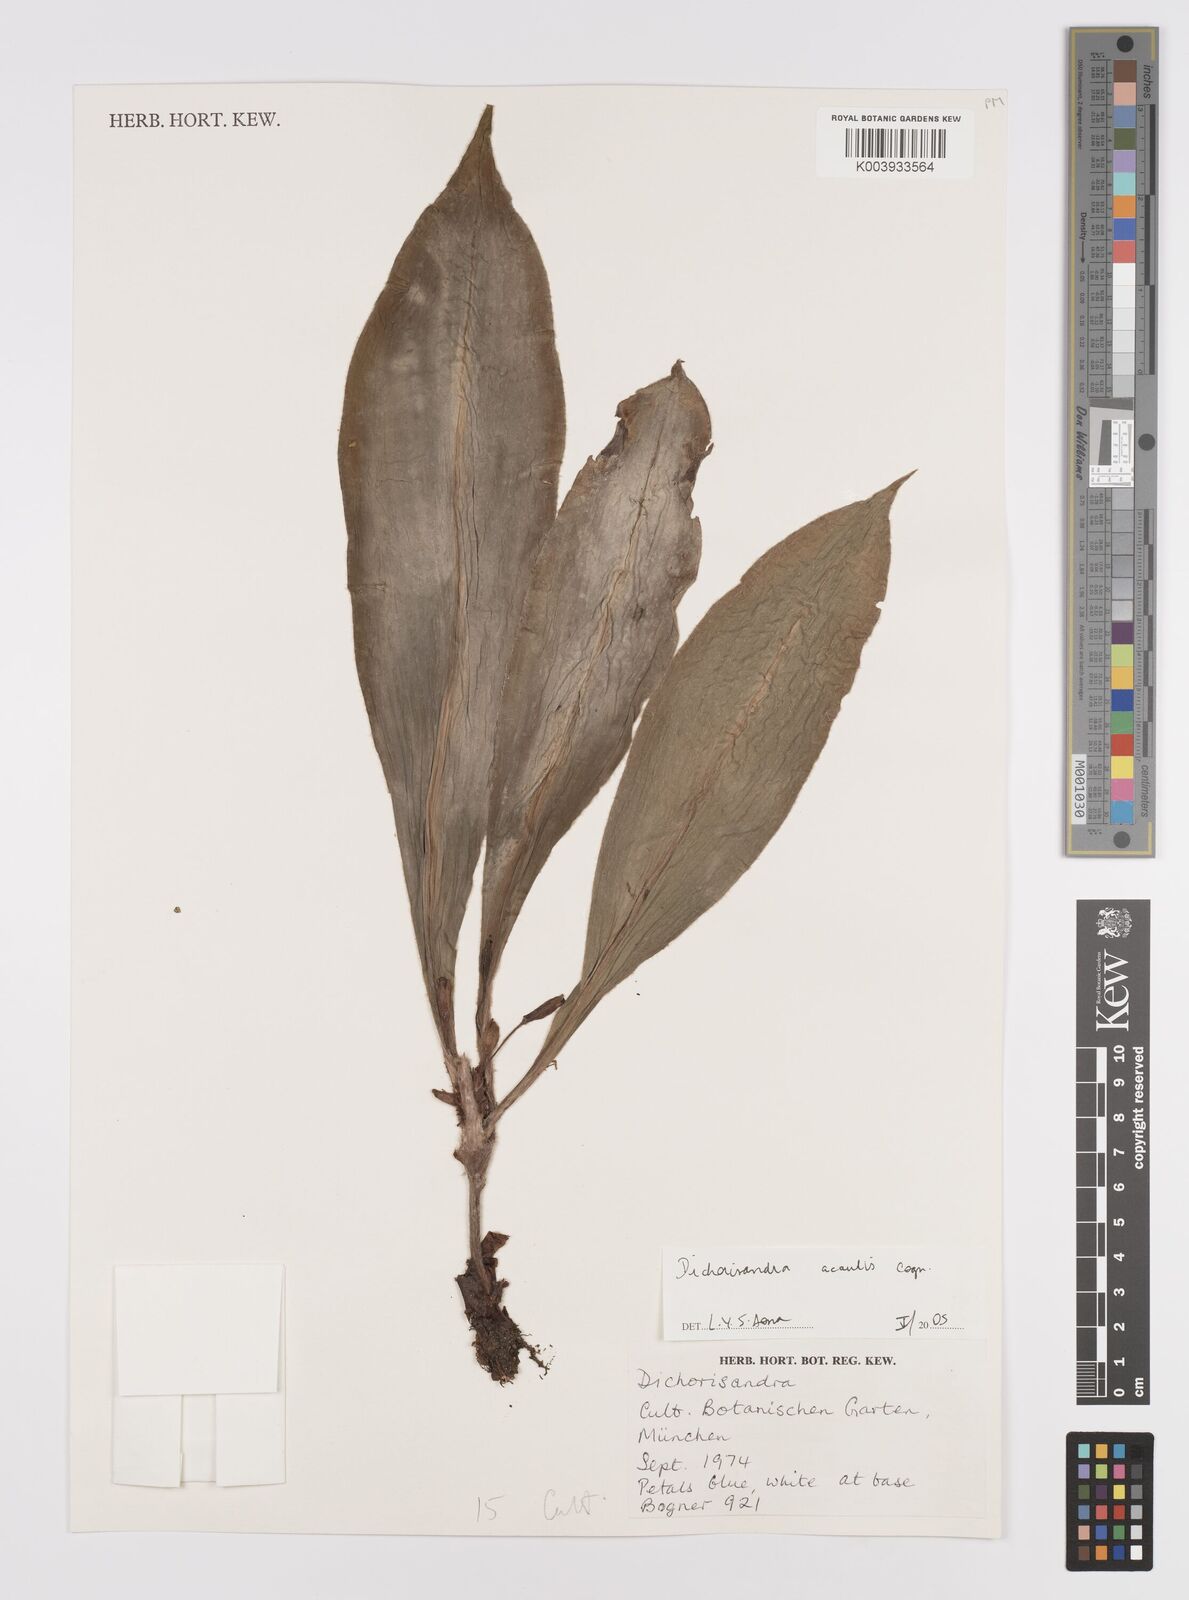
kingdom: Plantae
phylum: Tracheophyta
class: Liliopsida
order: Commelinales
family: Commelinaceae
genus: Dichorisandra
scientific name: Dichorisandra acaulis
